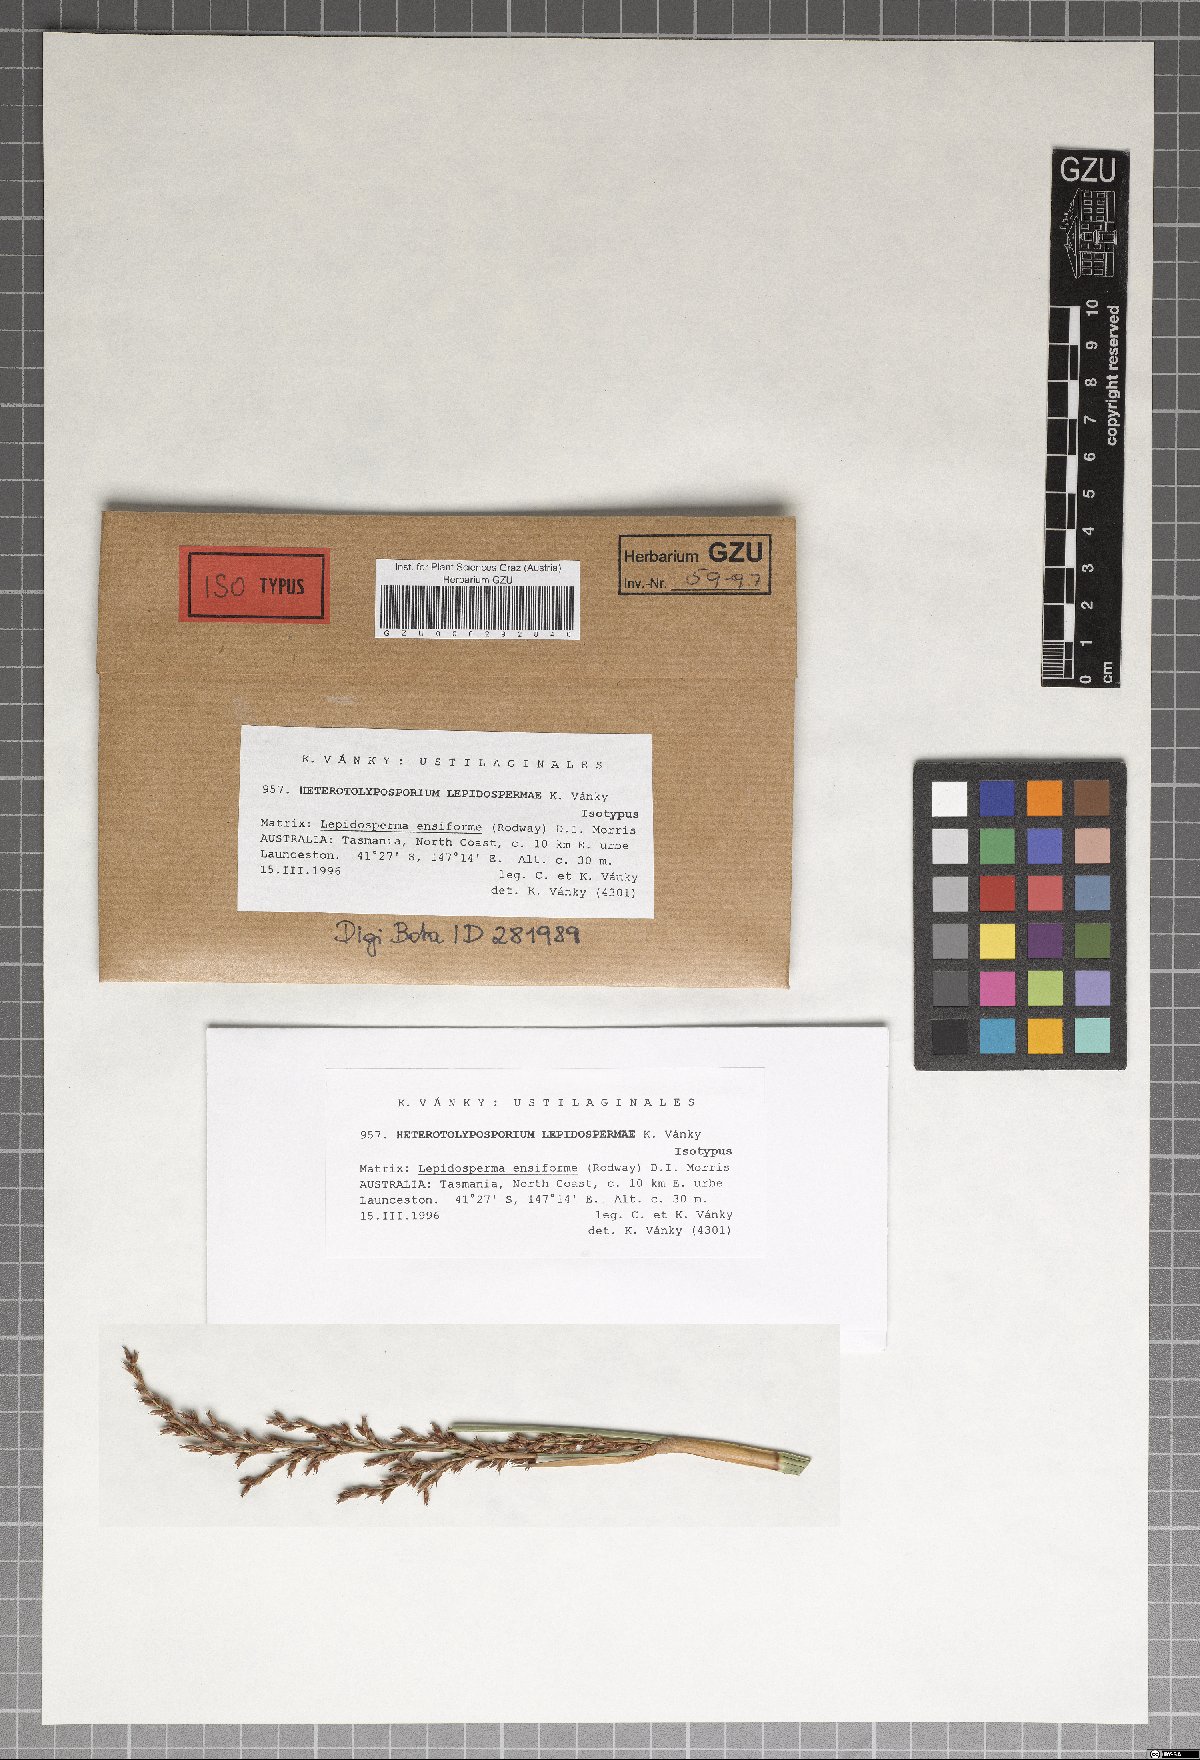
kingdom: Fungi
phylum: Basidiomycota
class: Ustilaginomycetes
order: Ustilaginales
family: Anthracoideaceae
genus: Heterotolyposporium
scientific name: Heterotolyposporium lepidospermatis
